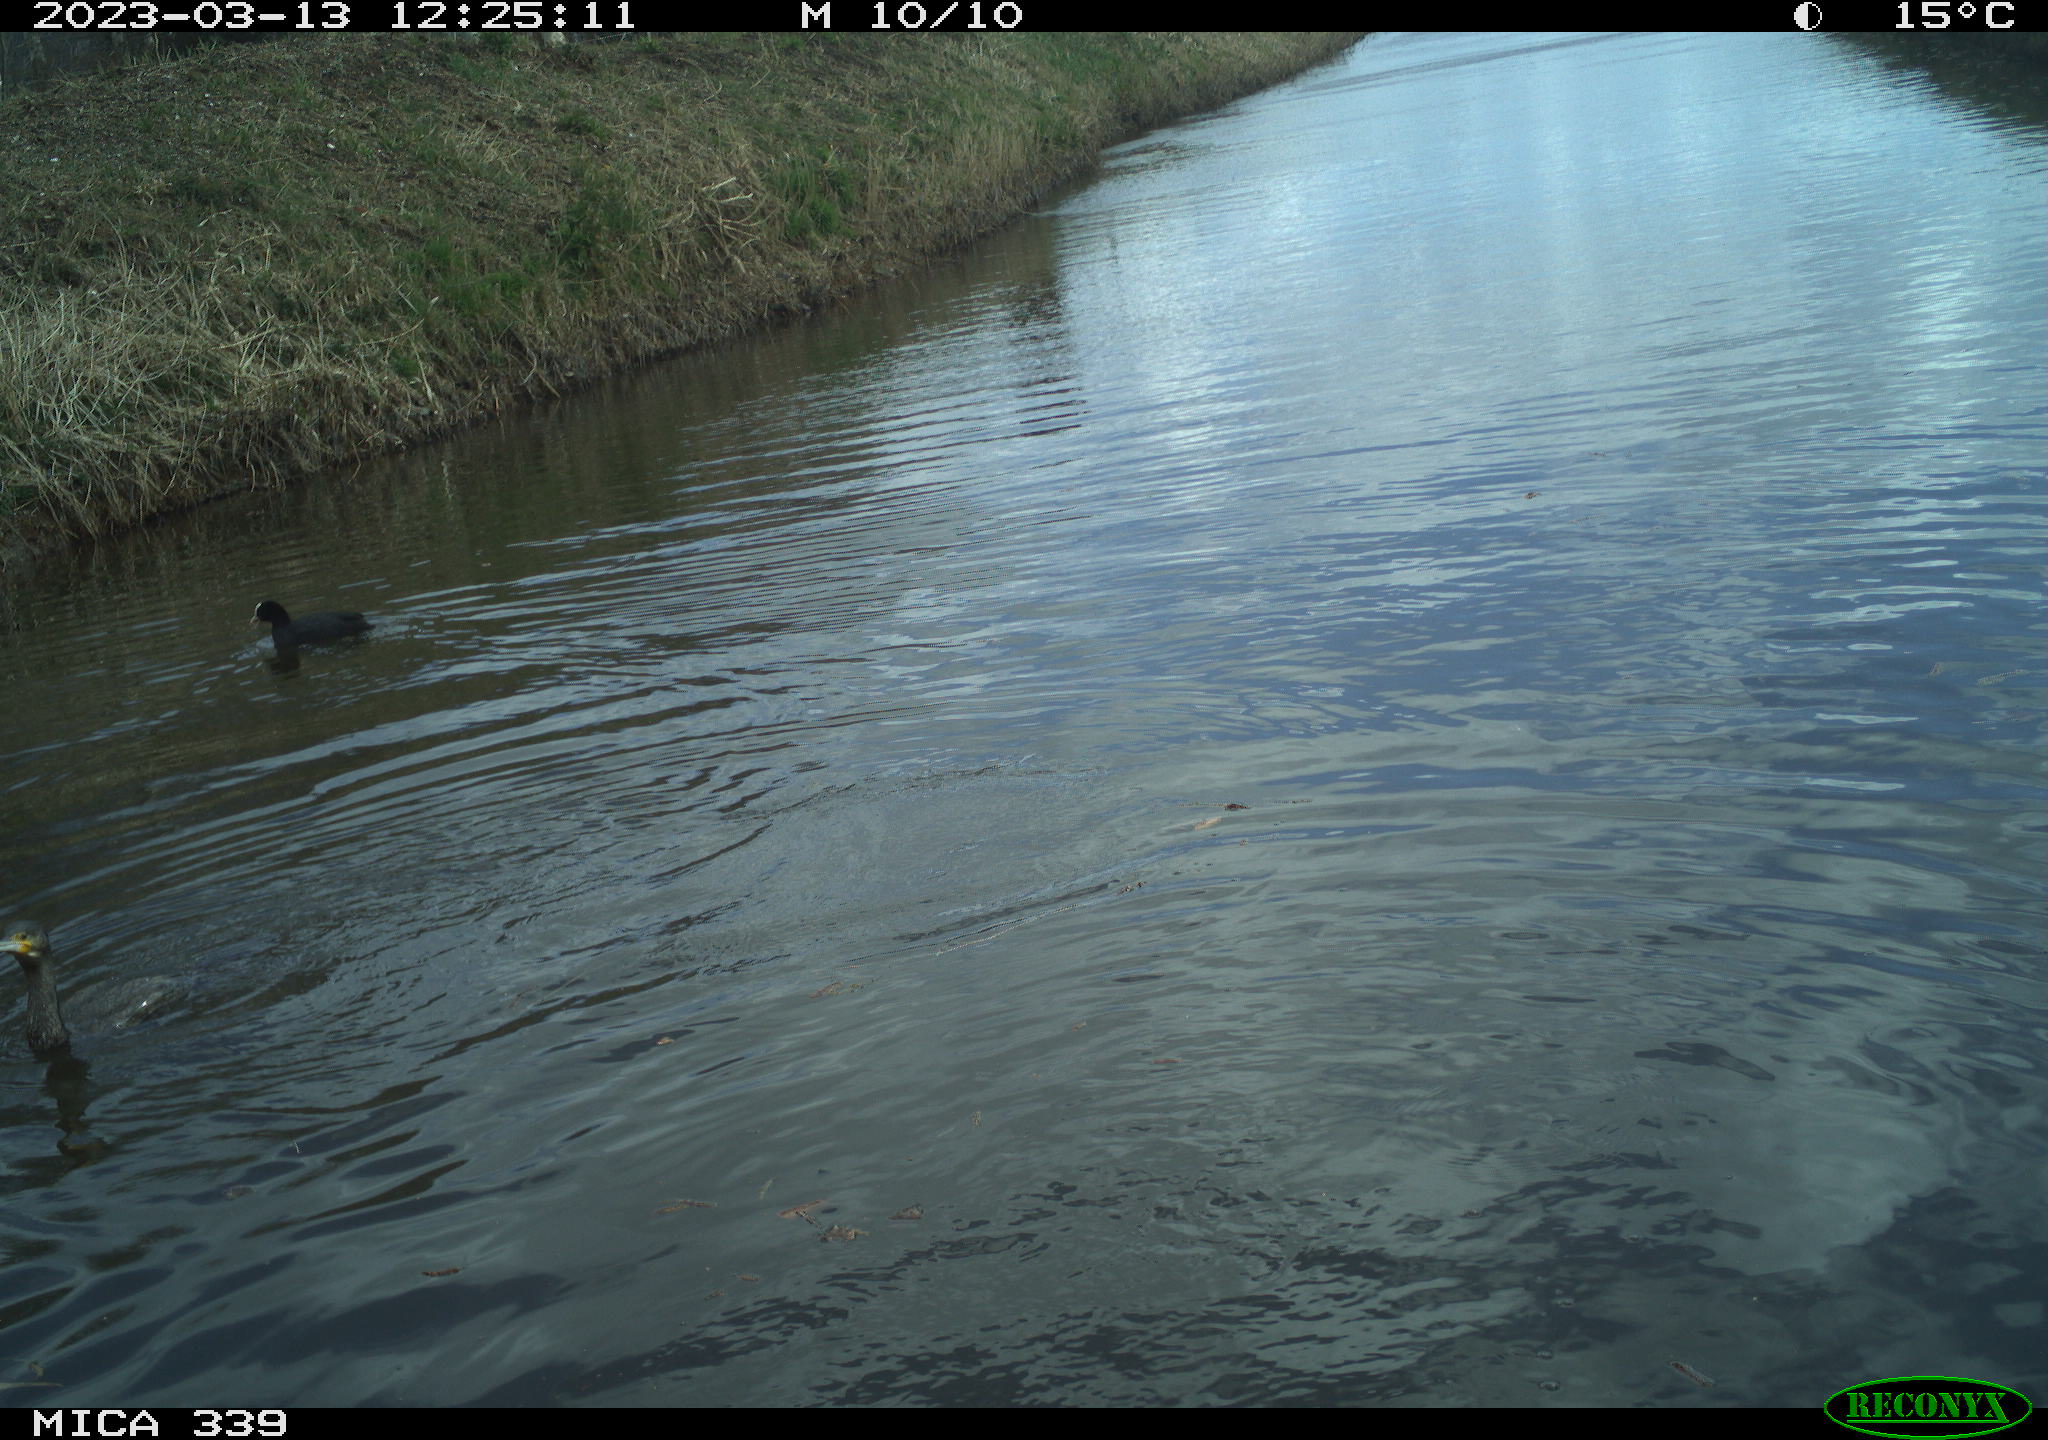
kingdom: Animalia
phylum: Chordata
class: Aves
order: Gruiformes
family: Rallidae
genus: Fulica
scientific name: Fulica atra
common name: Eurasian coot
